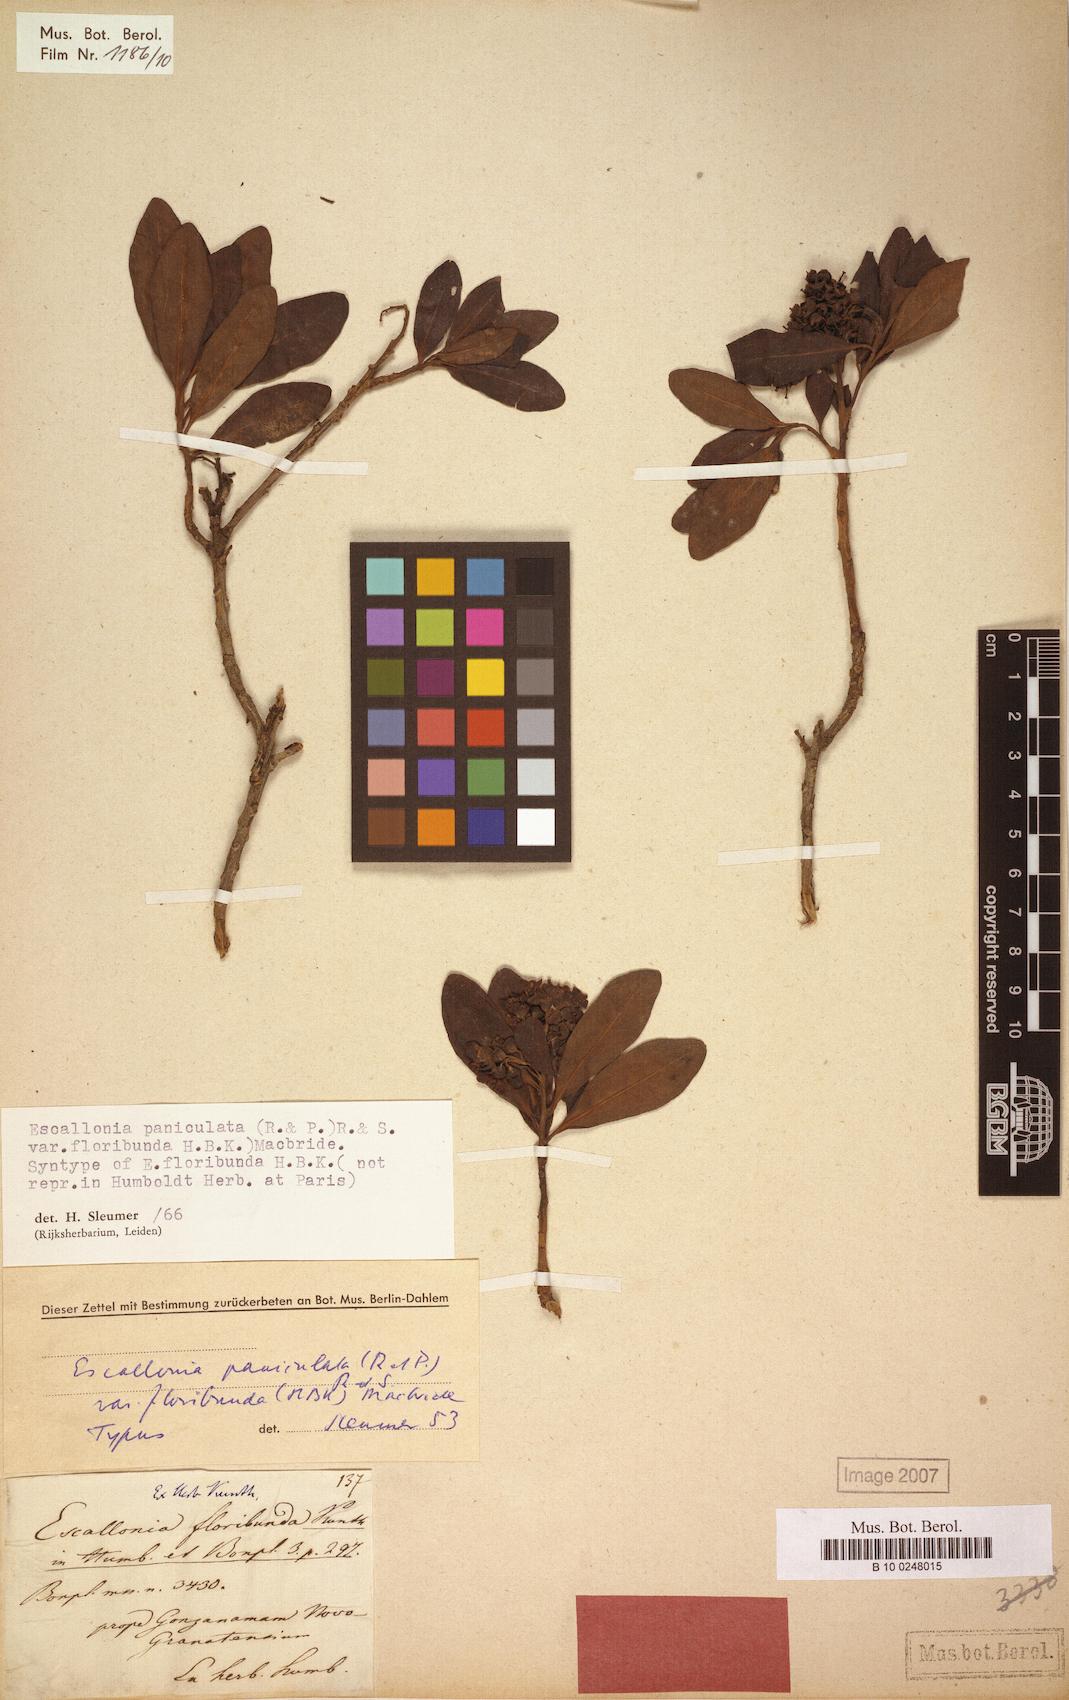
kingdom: Plantae
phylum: Tracheophyta
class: Magnoliopsida
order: Escalloniales
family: Escalloniaceae
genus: Escallonia
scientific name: Escallonia paniculata
